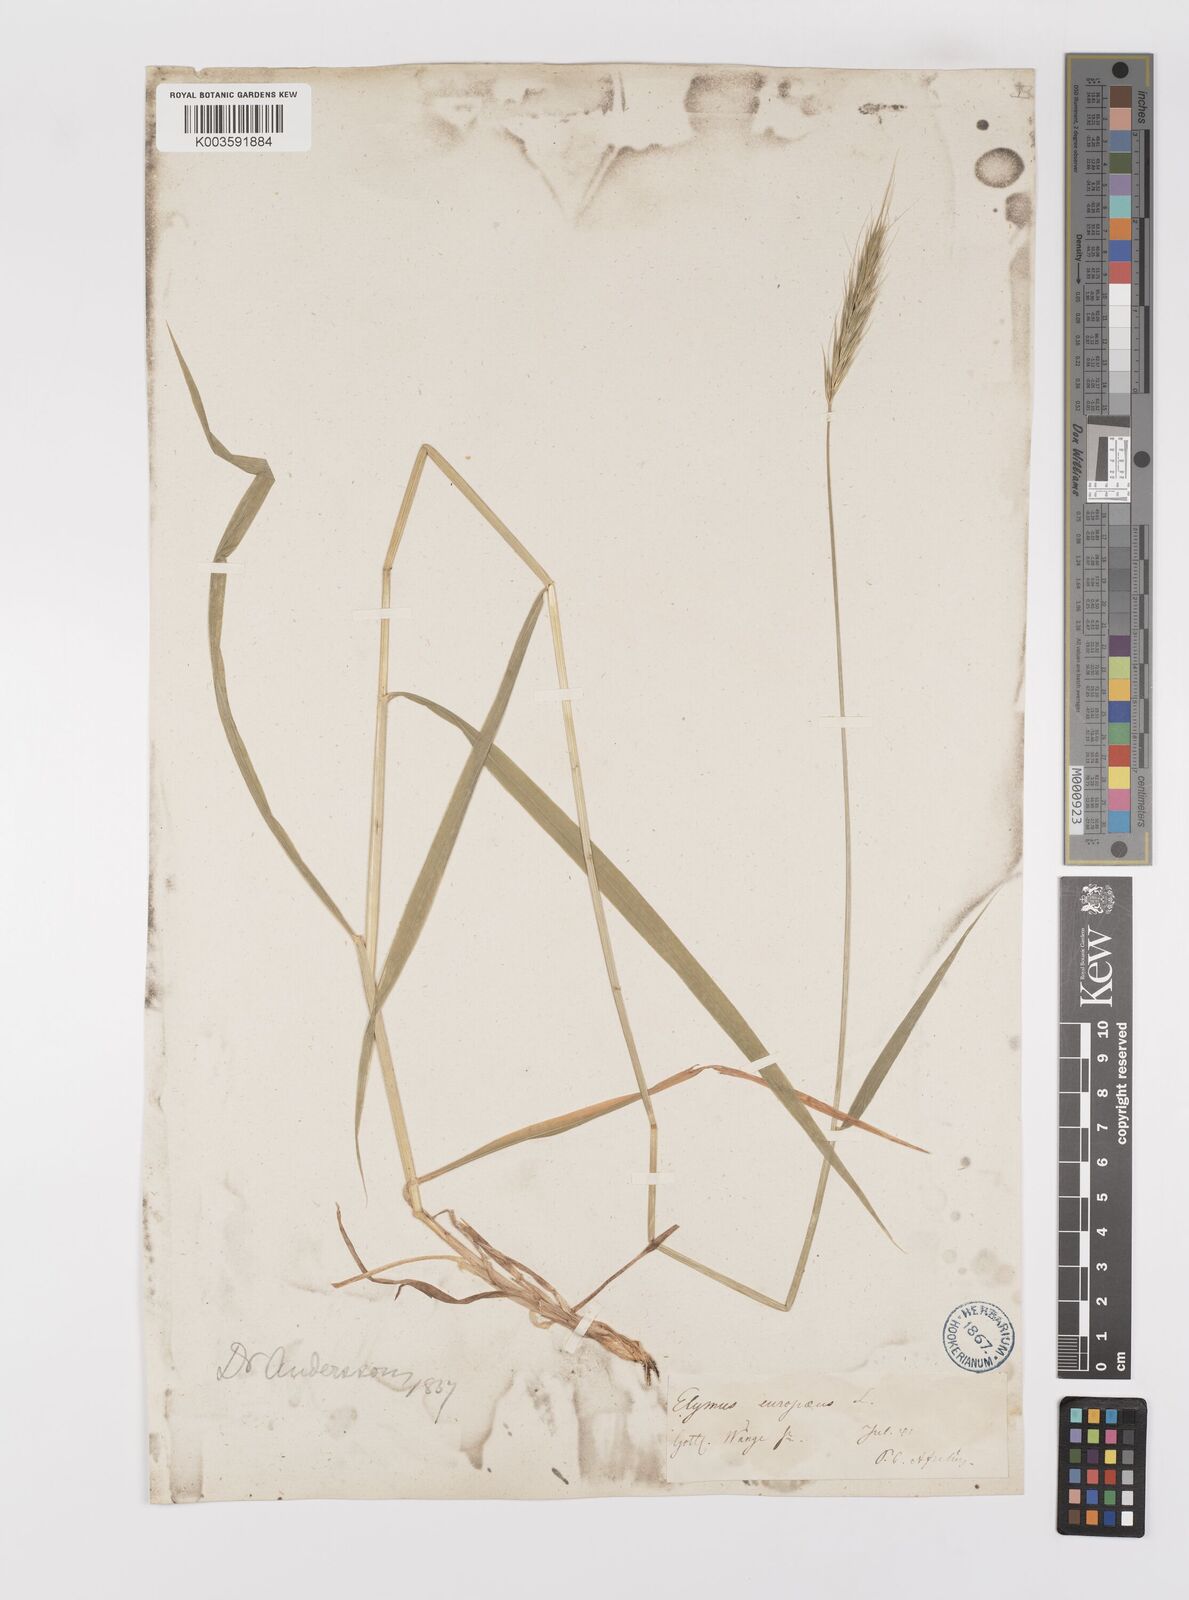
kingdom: Plantae
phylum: Tracheophyta
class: Liliopsida
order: Poales
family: Poaceae
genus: Hordelymus
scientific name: Hordelymus europaeus
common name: Wood-barley
